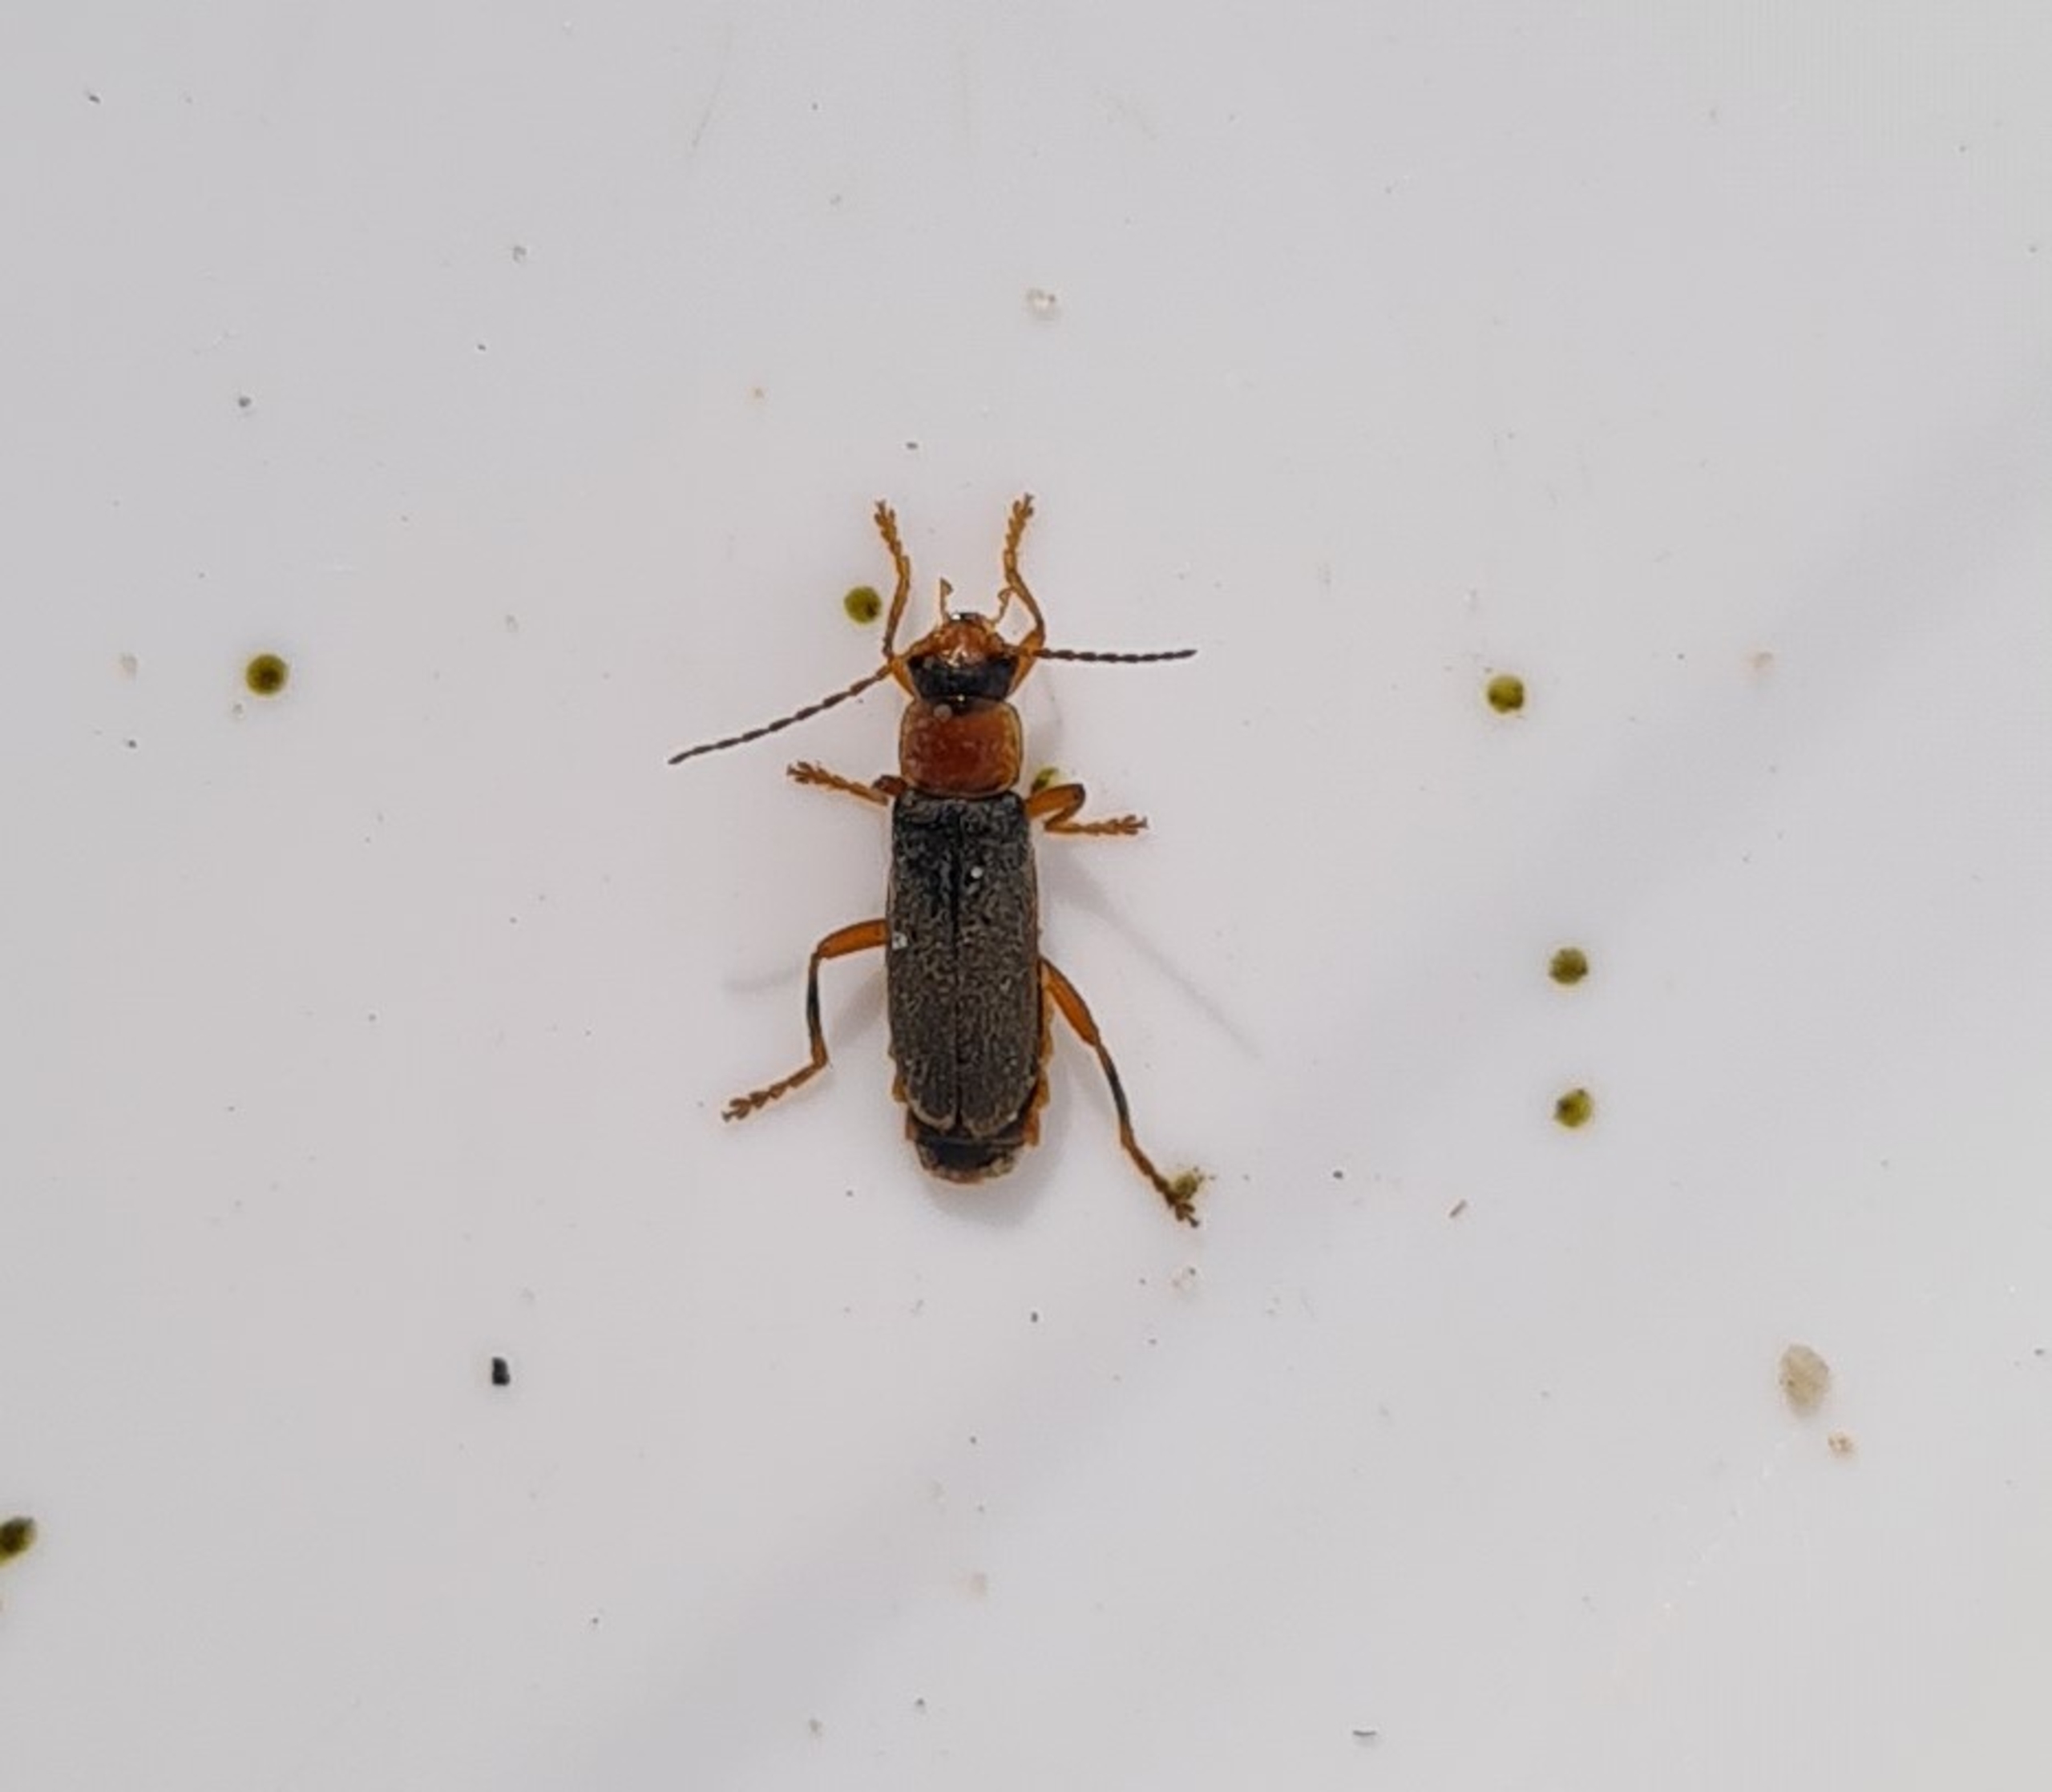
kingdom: Animalia
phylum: Arthropoda
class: Insecta
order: Coleoptera
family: Cantharidae
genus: Cantharis
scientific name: Cantharis lateralis
